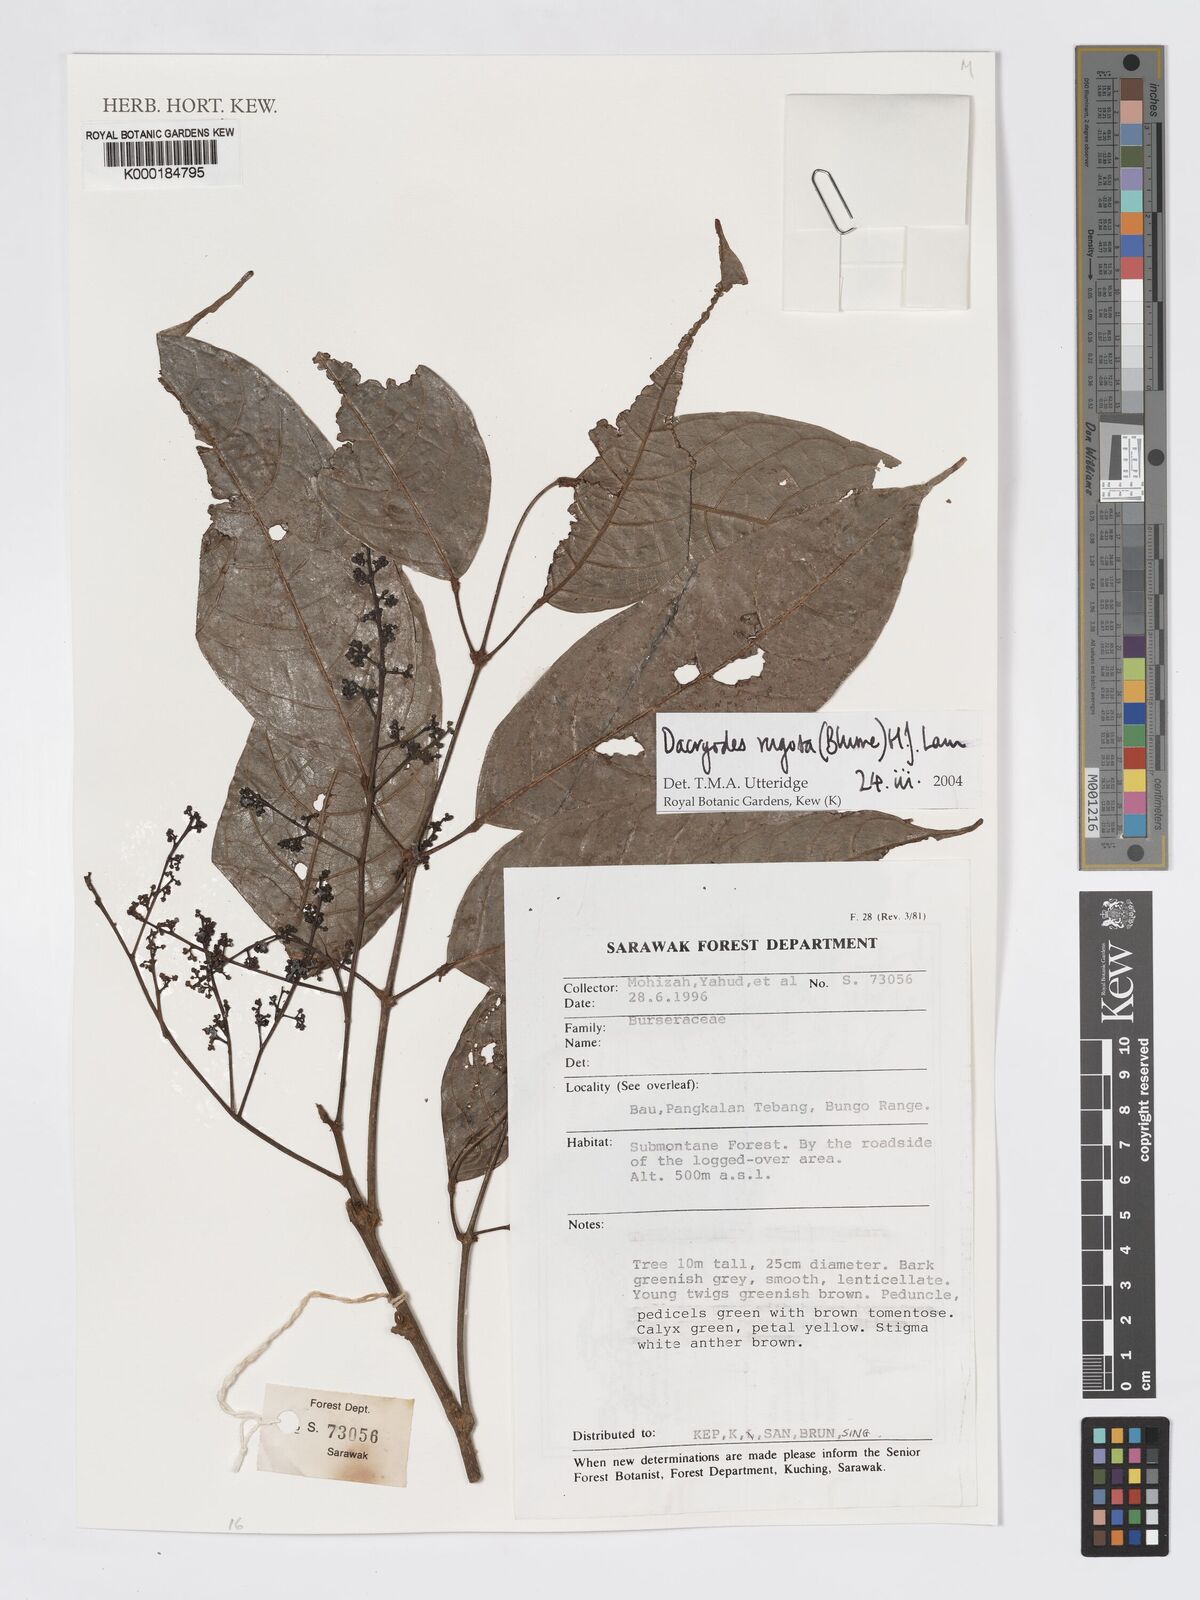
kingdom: Plantae
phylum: Tracheophyta
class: Magnoliopsida
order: Sapindales
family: Burseraceae
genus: Dacryodes
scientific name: Dacryodes rugosa
